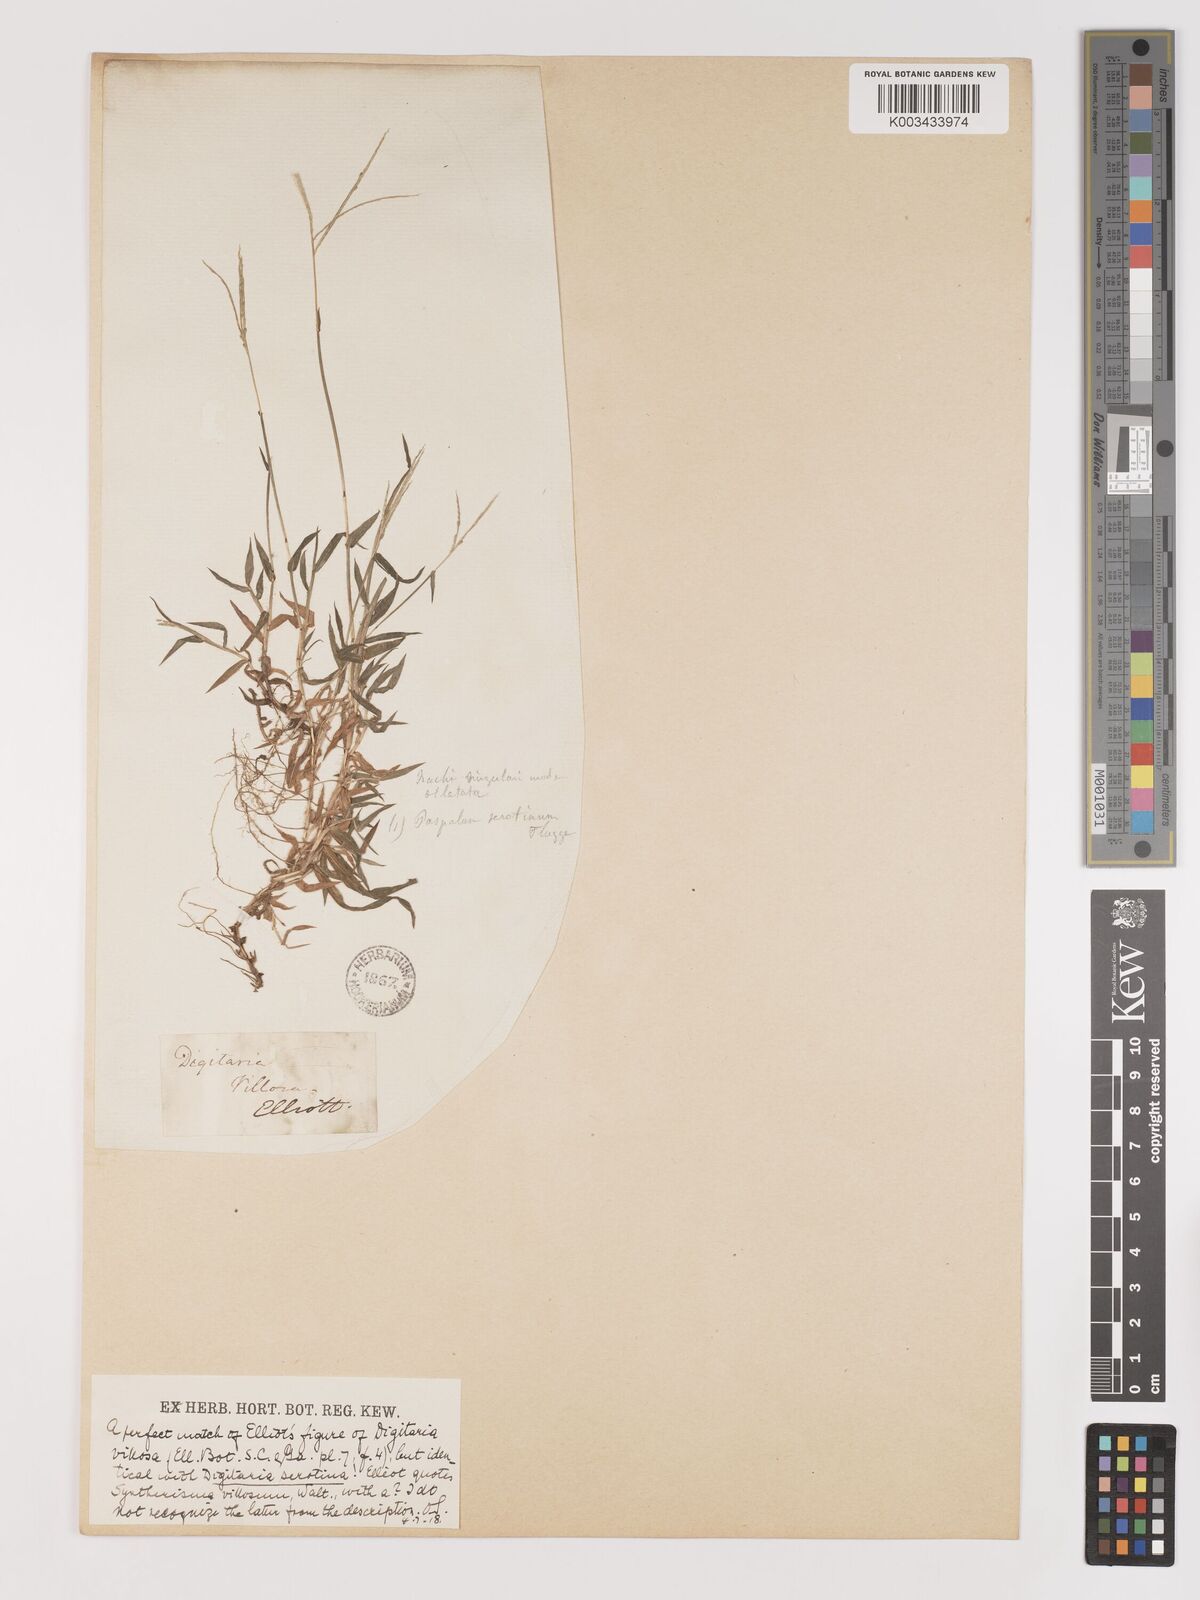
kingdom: Plantae
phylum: Tracheophyta
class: Liliopsida
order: Poales
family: Poaceae
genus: Digitaria
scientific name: Digitaria serotina
